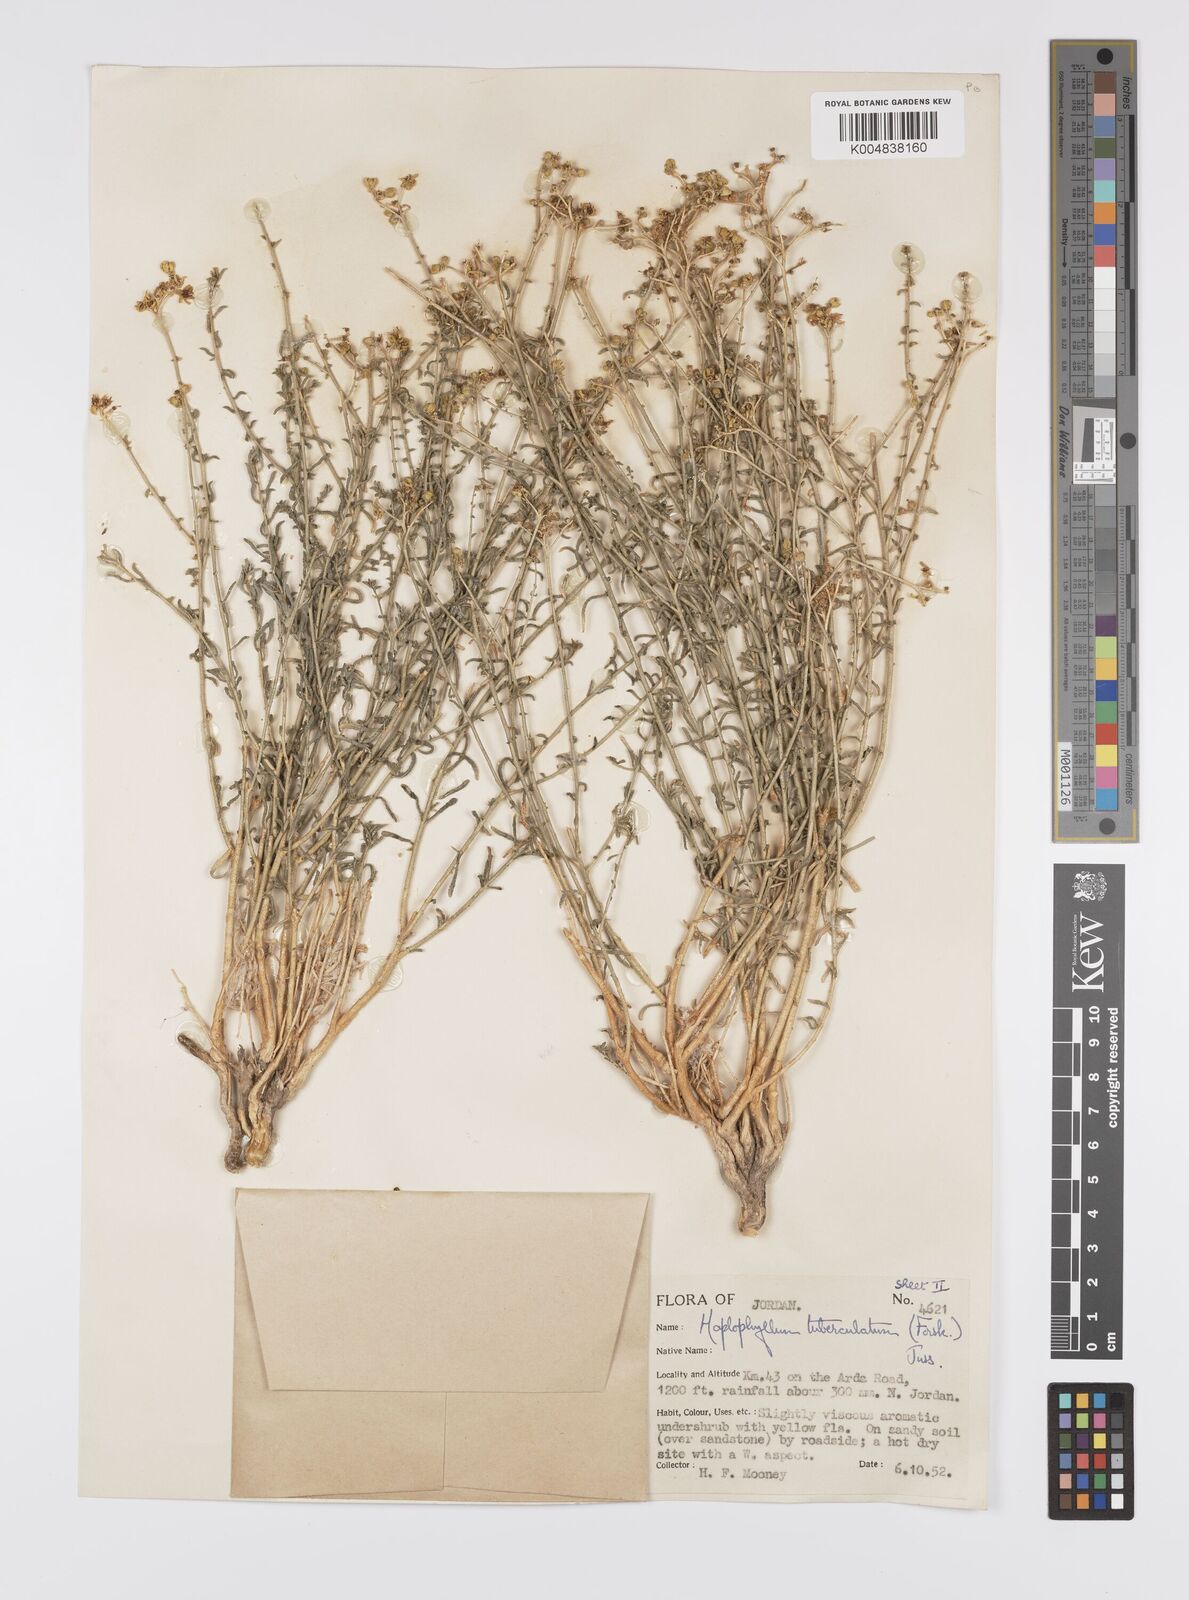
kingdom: Plantae
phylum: Tracheophyta
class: Magnoliopsida
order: Sapindales
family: Rutaceae
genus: Haplophyllum
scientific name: Haplophyllum tuberculatum
